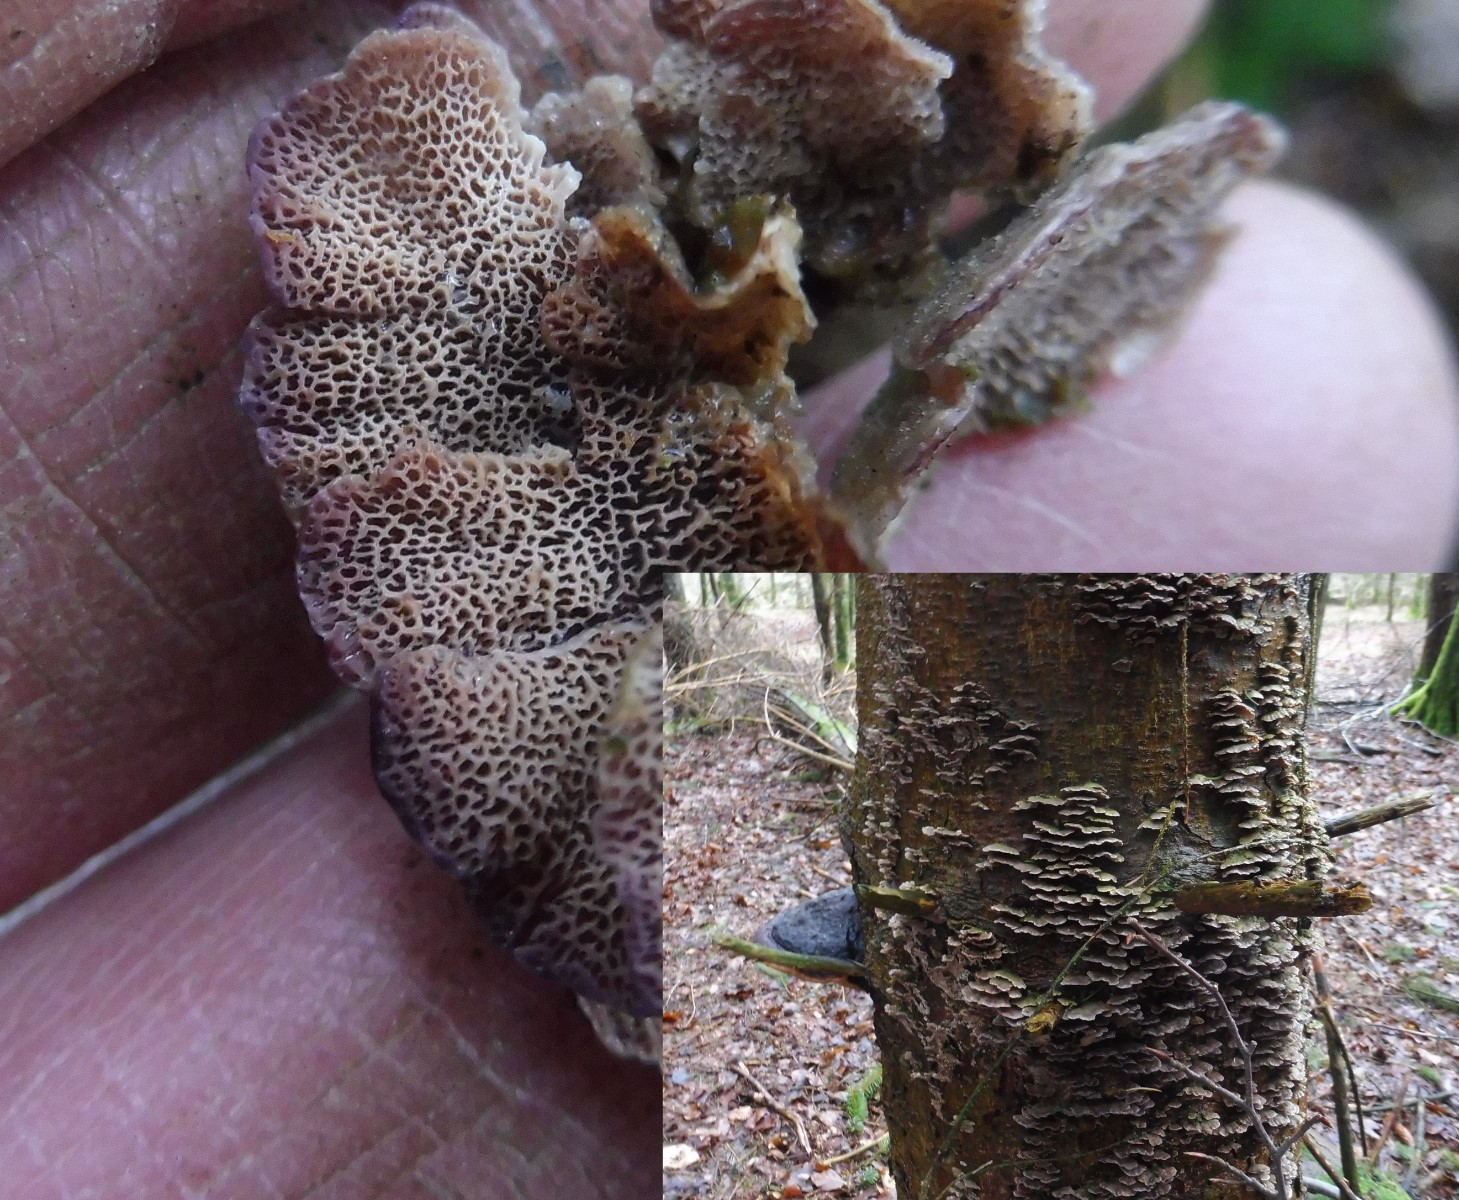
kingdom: Fungi
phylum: Basidiomycota
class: Agaricomycetes
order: Hymenochaetales
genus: Trichaptum
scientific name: Trichaptum abietinum
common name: almindelig violporesvamp
